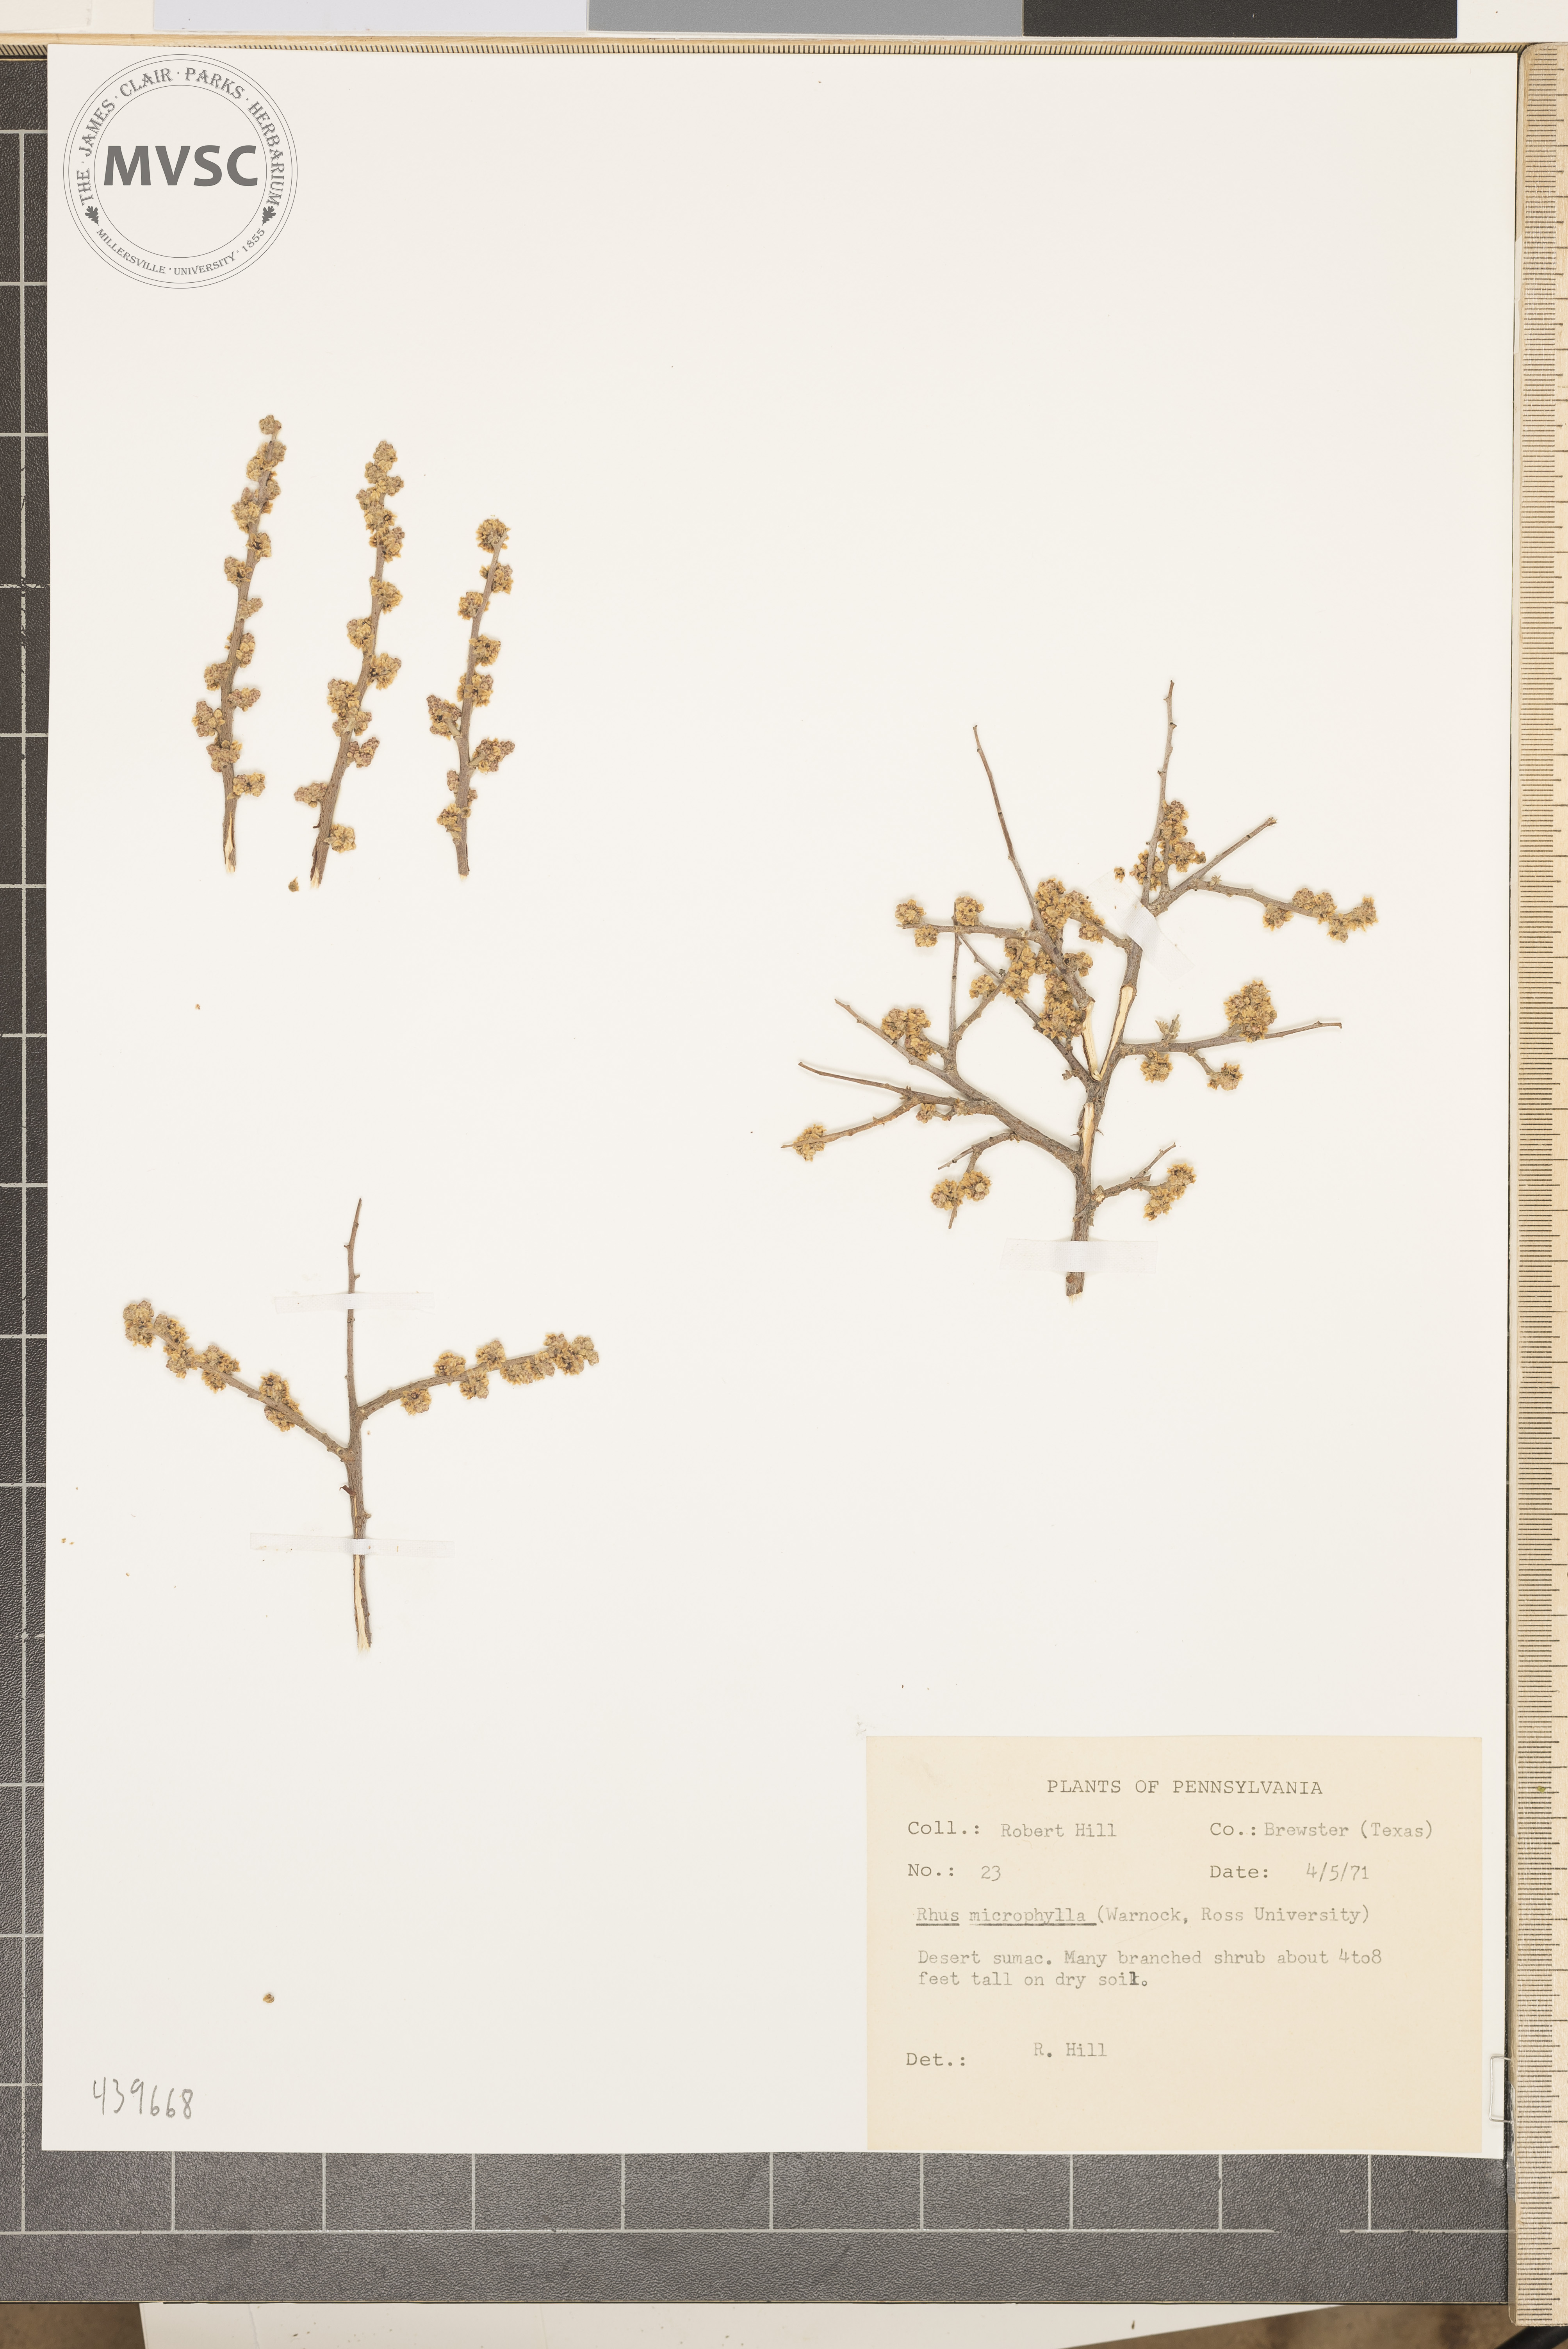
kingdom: Plantae
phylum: Tracheophyta
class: Magnoliopsida
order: Sapindales
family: Anacardiaceae
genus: Rhus
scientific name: Rhus microphylla
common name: Desert sumac
